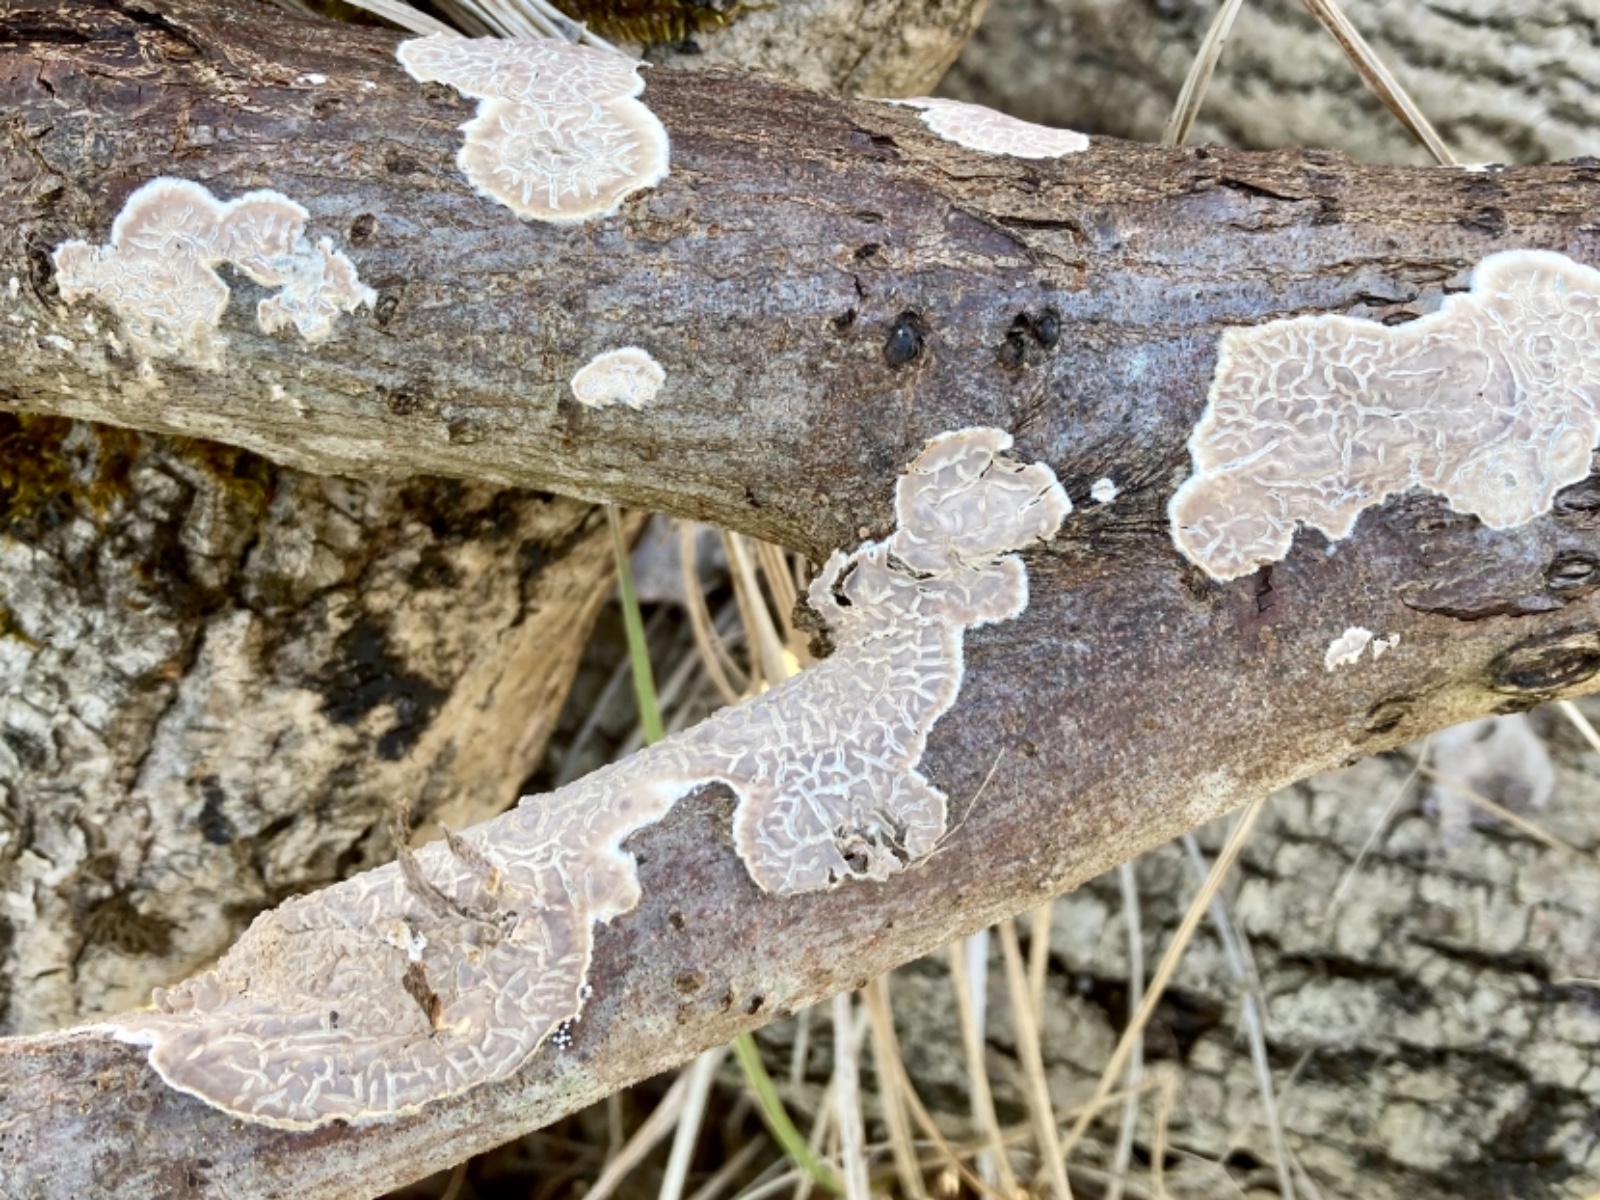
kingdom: Fungi
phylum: Basidiomycota
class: Agaricomycetes
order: Agaricales
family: Physalacriaceae
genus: Cylindrobasidium
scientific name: Cylindrobasidium evolvens
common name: sprækkehinde
